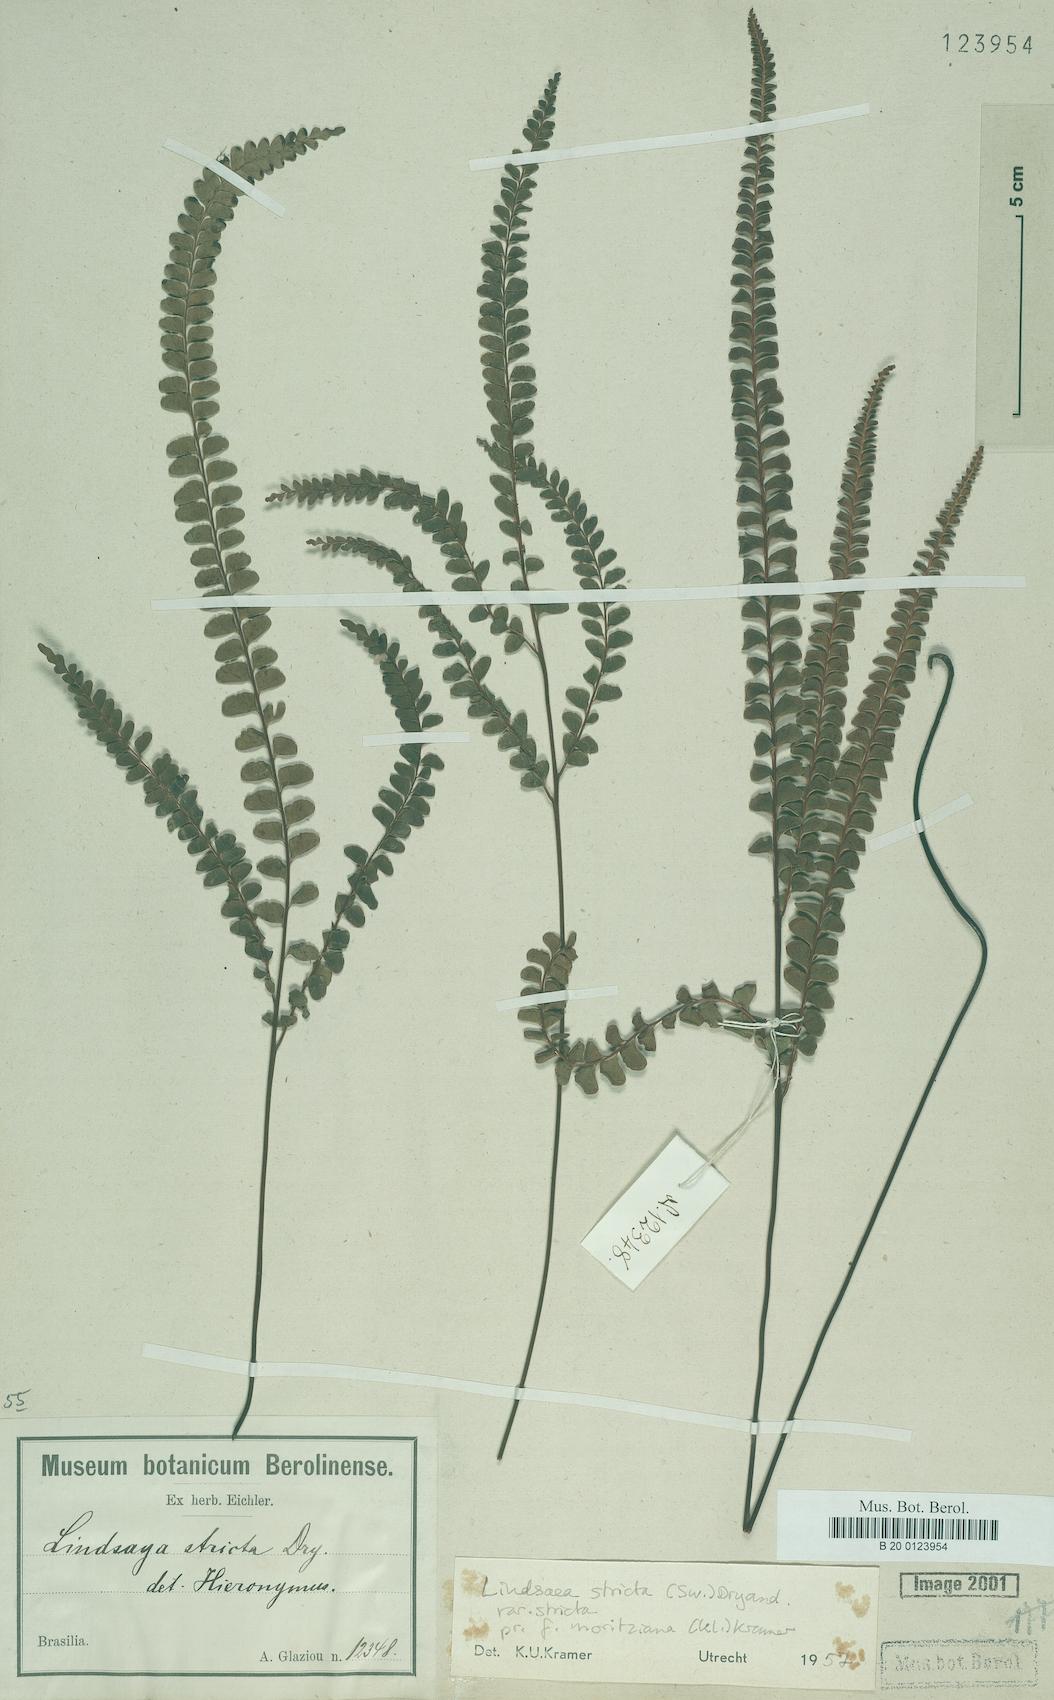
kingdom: Plantae
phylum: Tracheophyta
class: Polypodiopsida
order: Polypodiales
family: Lindsaeaceae
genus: Lindsaea
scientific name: Lindsaea stricta
